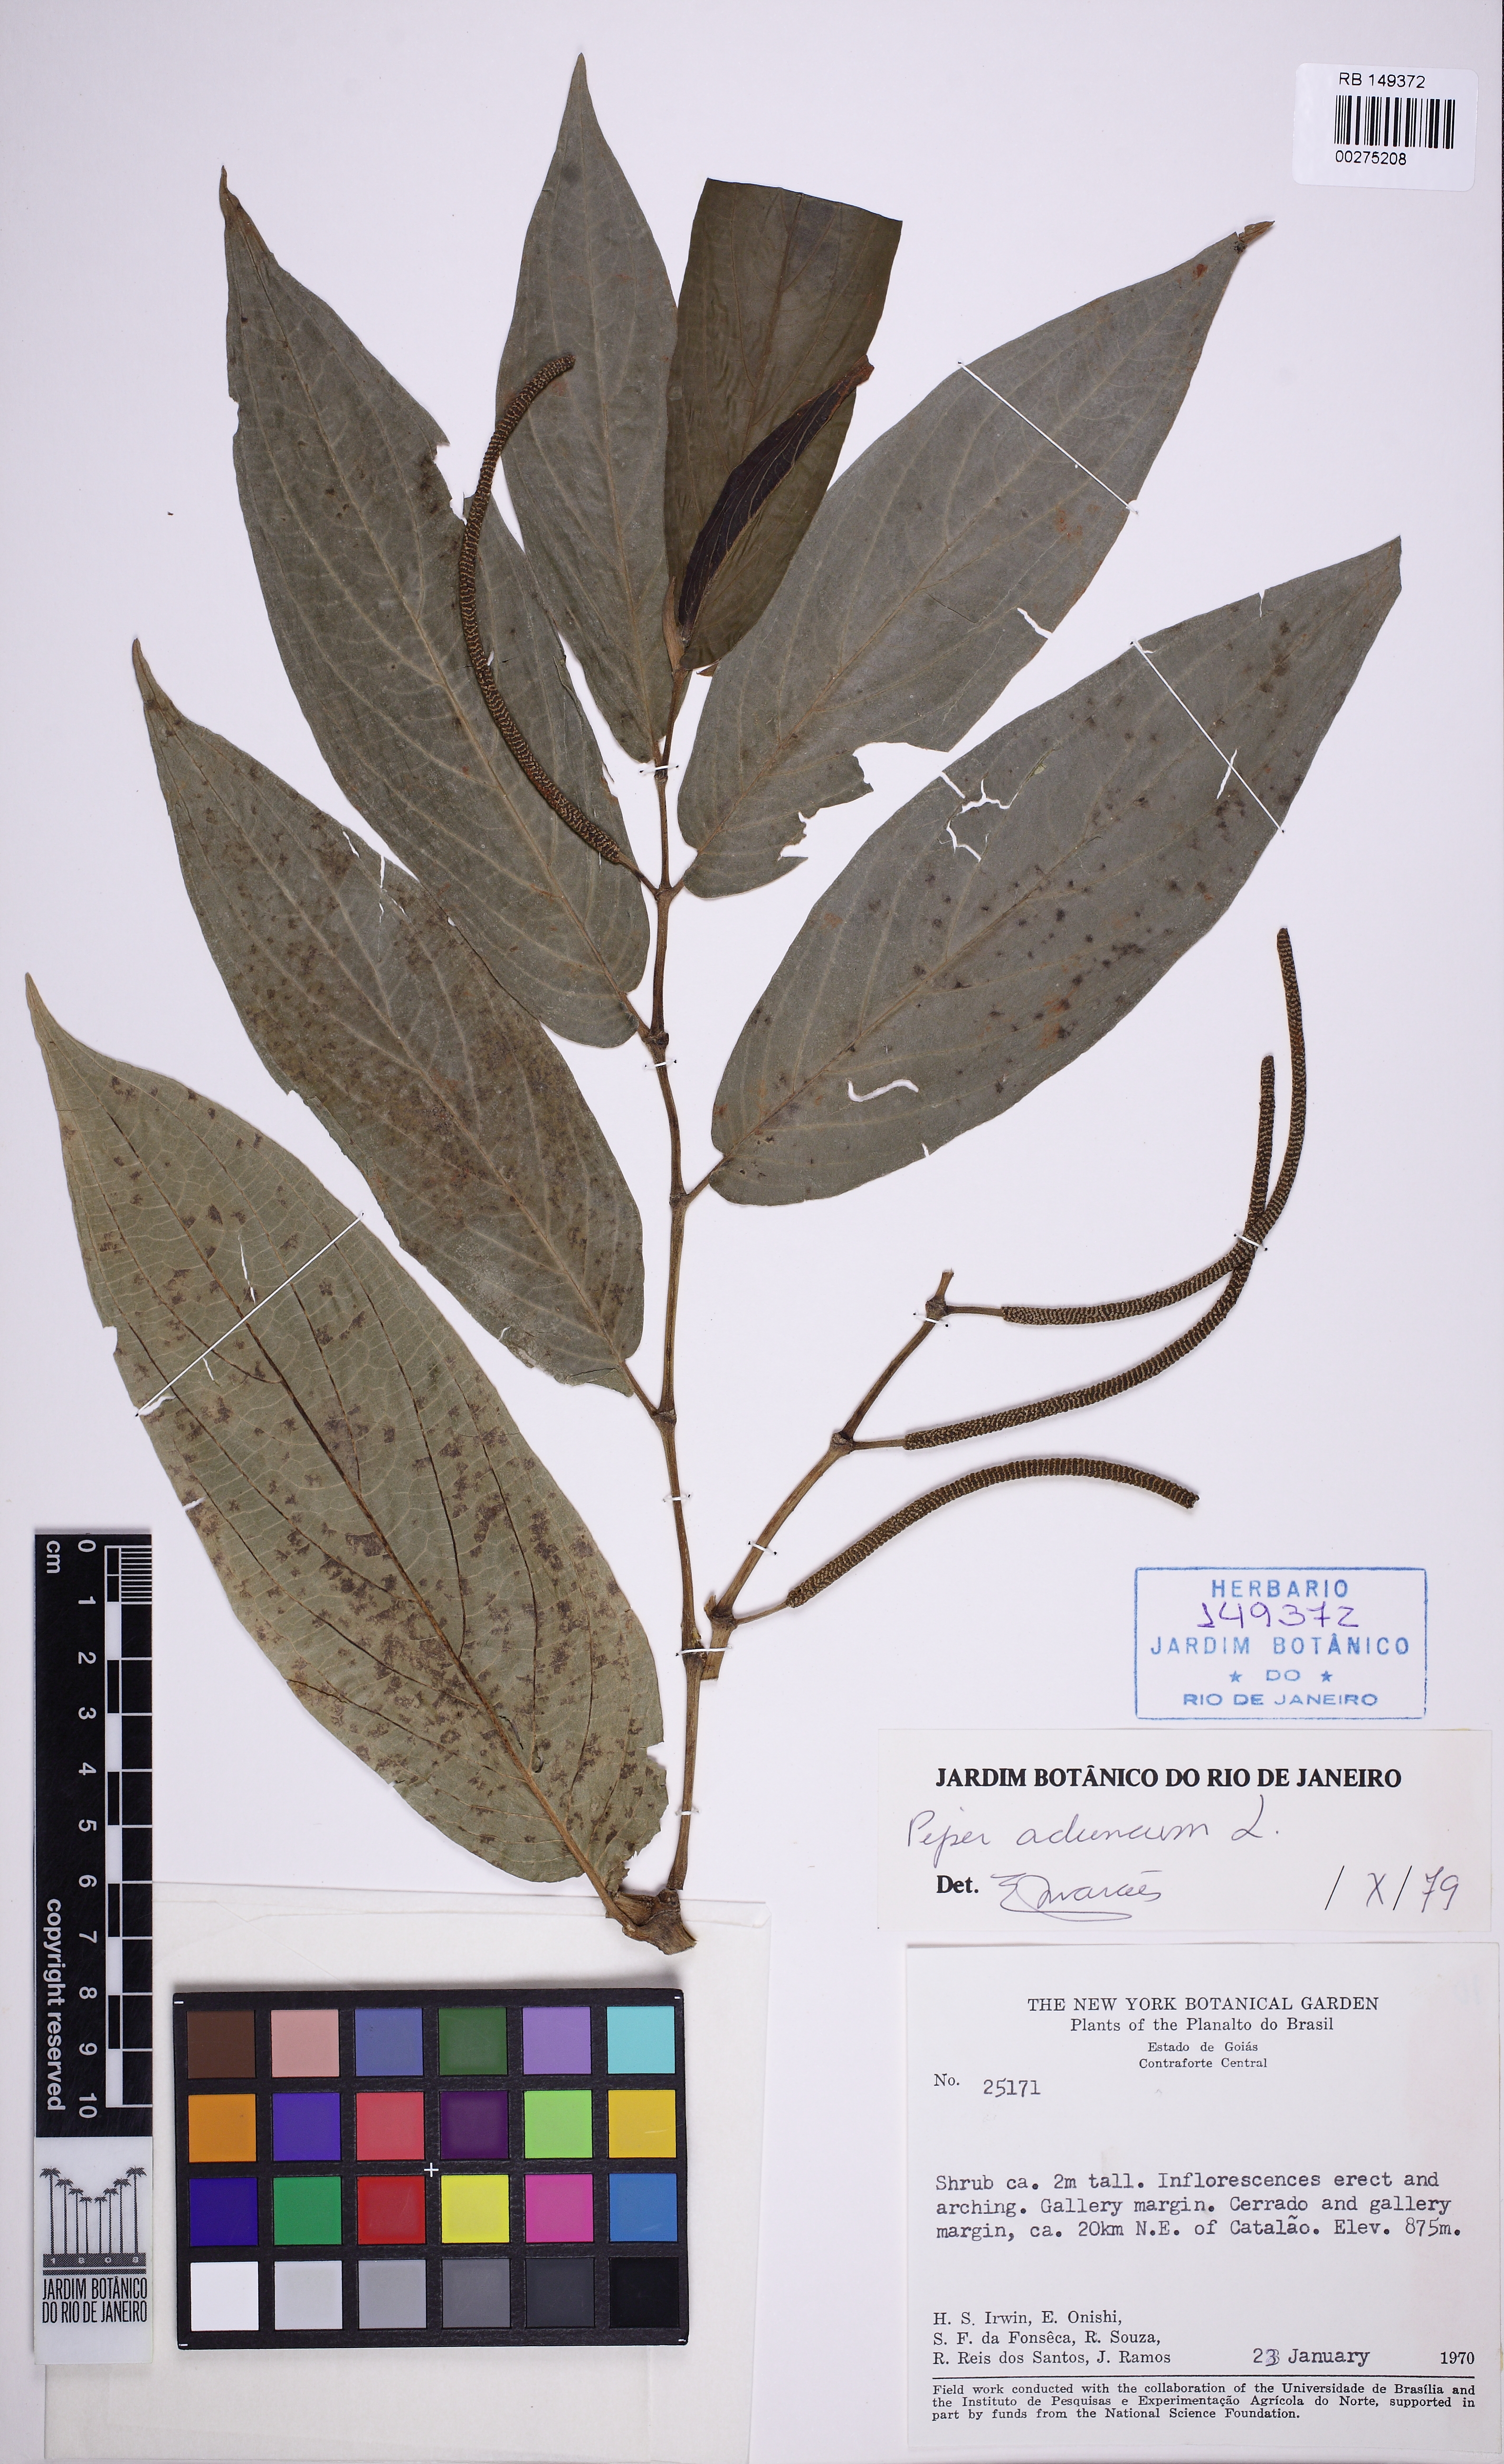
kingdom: Plantae
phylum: Tracheophyta
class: Magnoliopsida
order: Piperales
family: Piperaceae
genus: Piper
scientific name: Piper aduncum
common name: Spiked pepper
